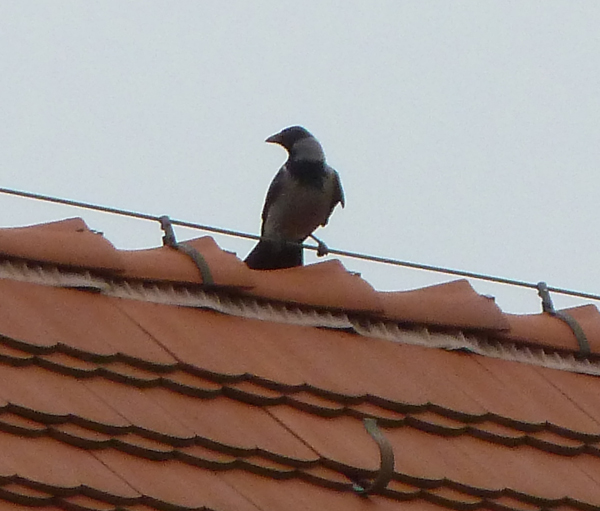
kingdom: Animalia
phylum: Chordata
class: Aves
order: Passeriformes
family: Corvidae
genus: Corvus
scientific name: Corvus cornix
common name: Hooded crow
